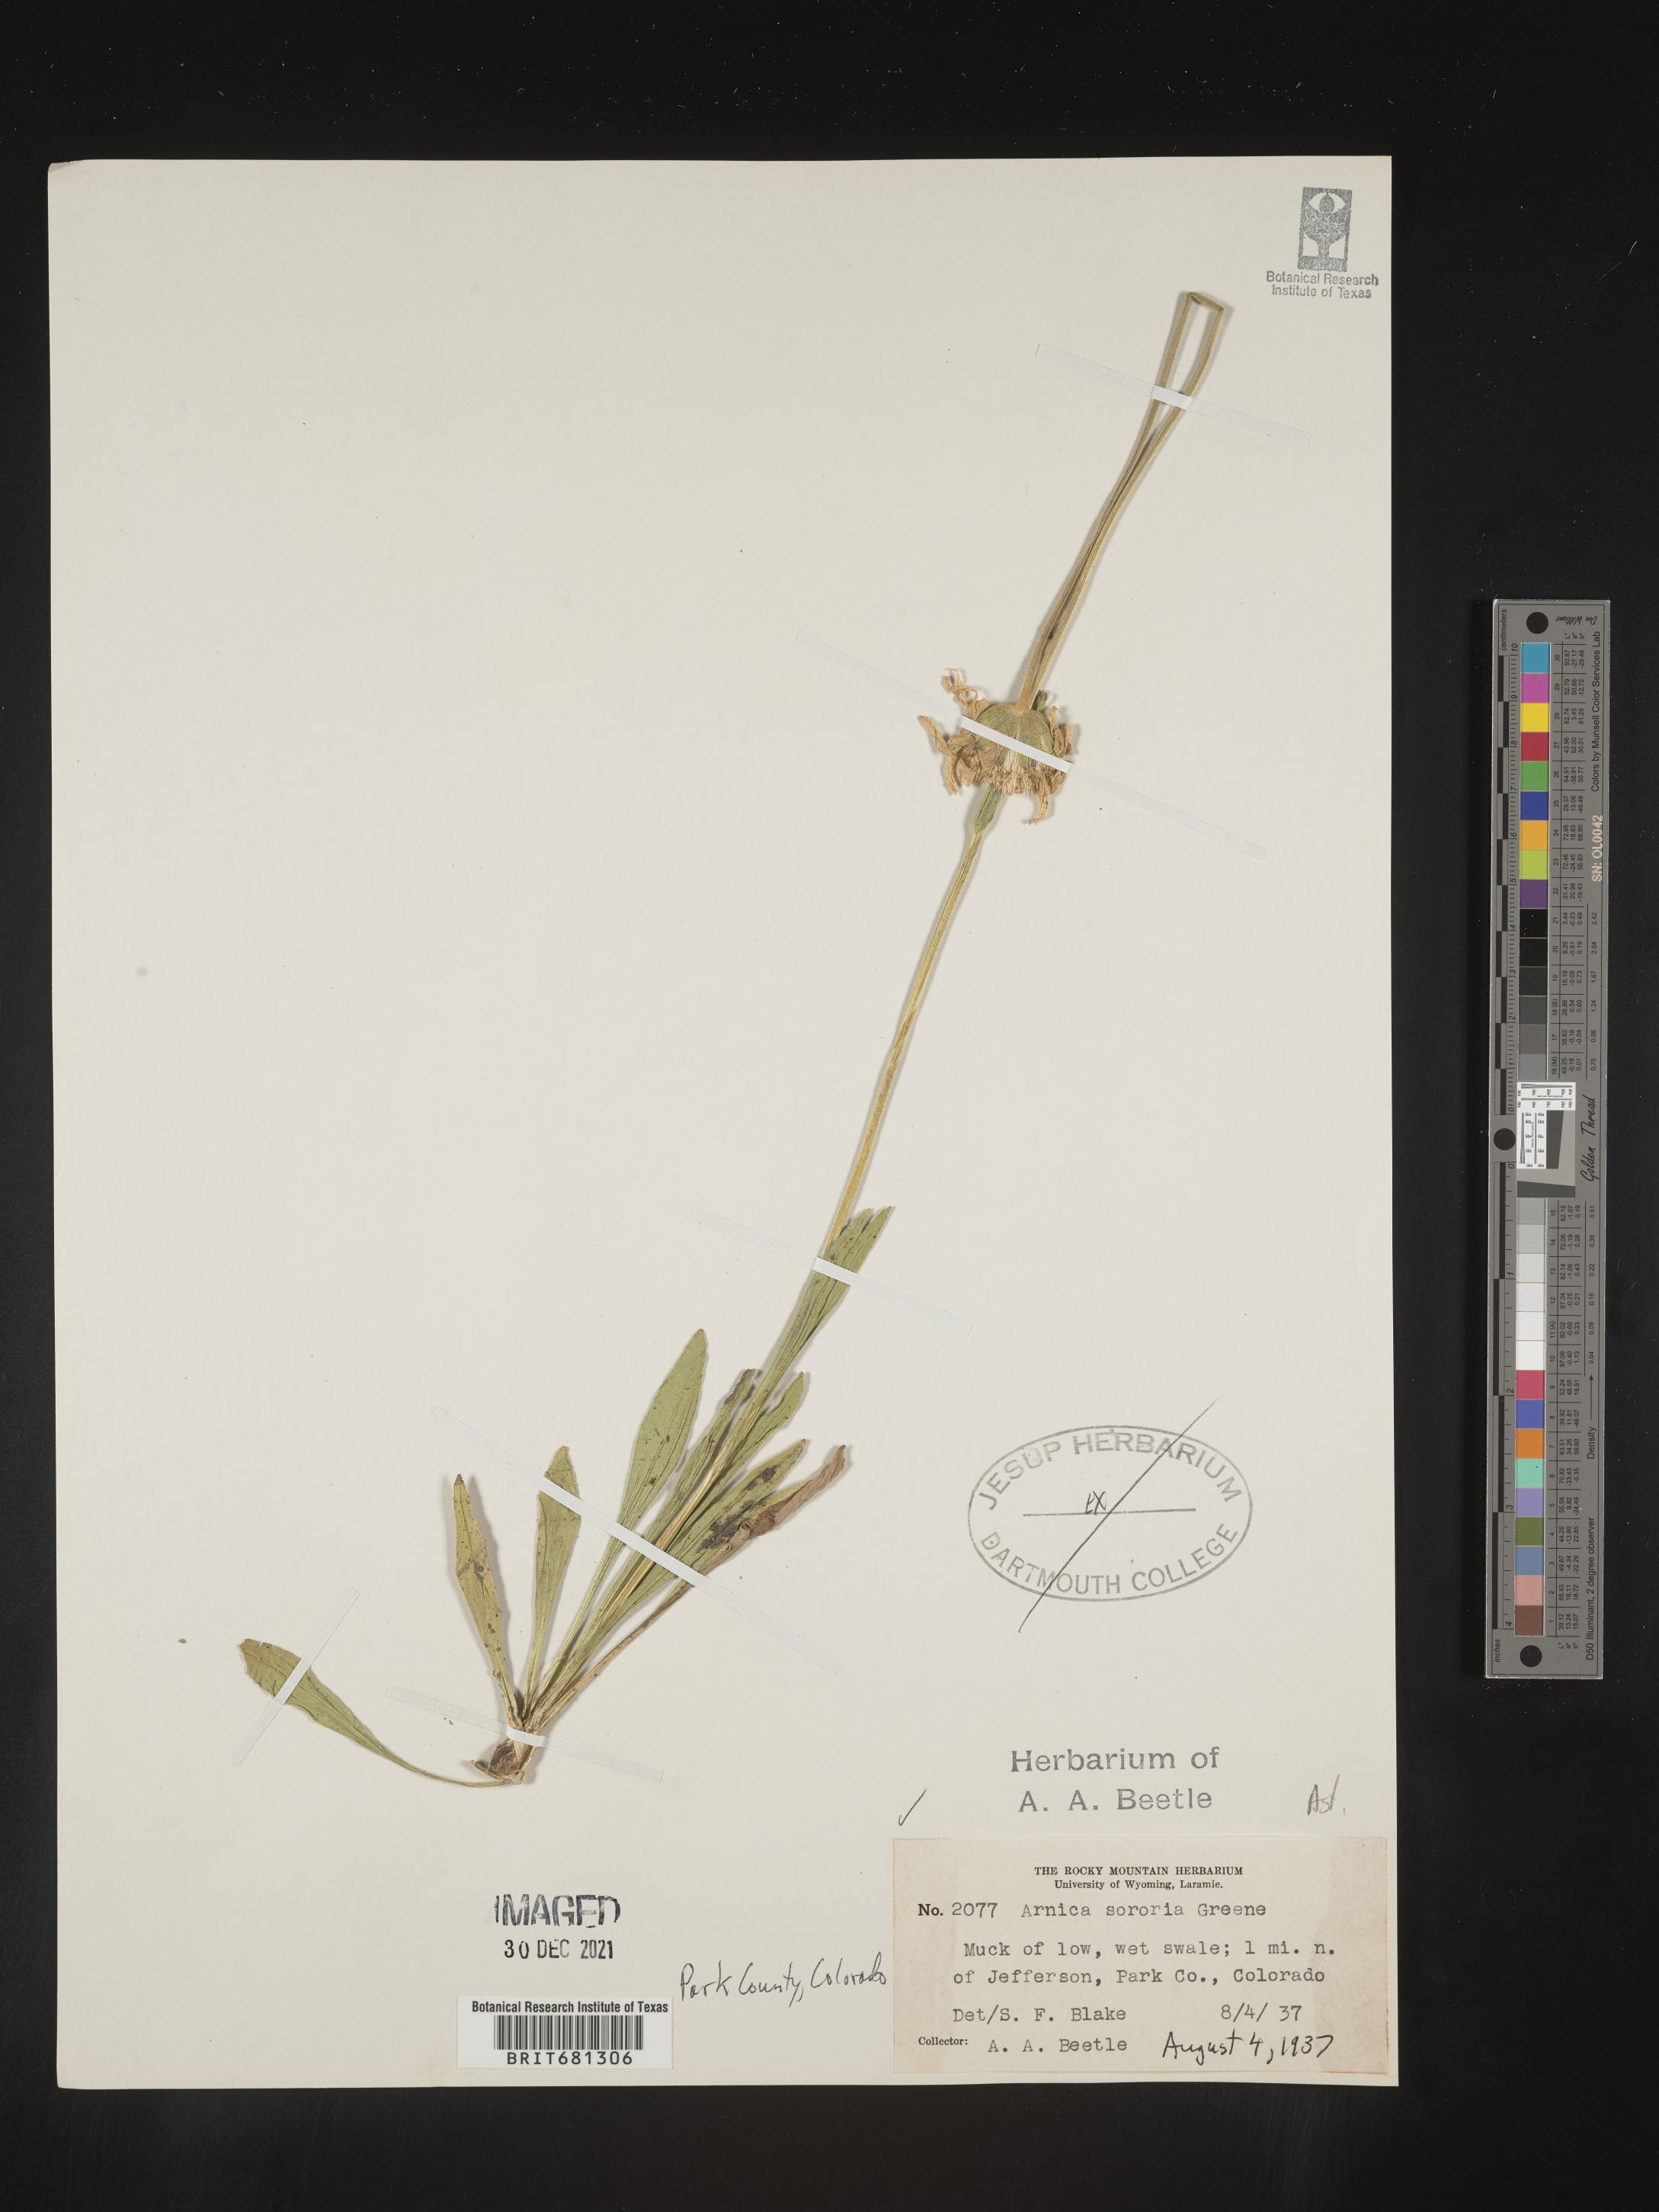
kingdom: Plantae
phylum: Tracheophyta
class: Magnoliopsida
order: Asterales
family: Asteraceae
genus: Arnica
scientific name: Arnica sororia
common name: Twin arnica
